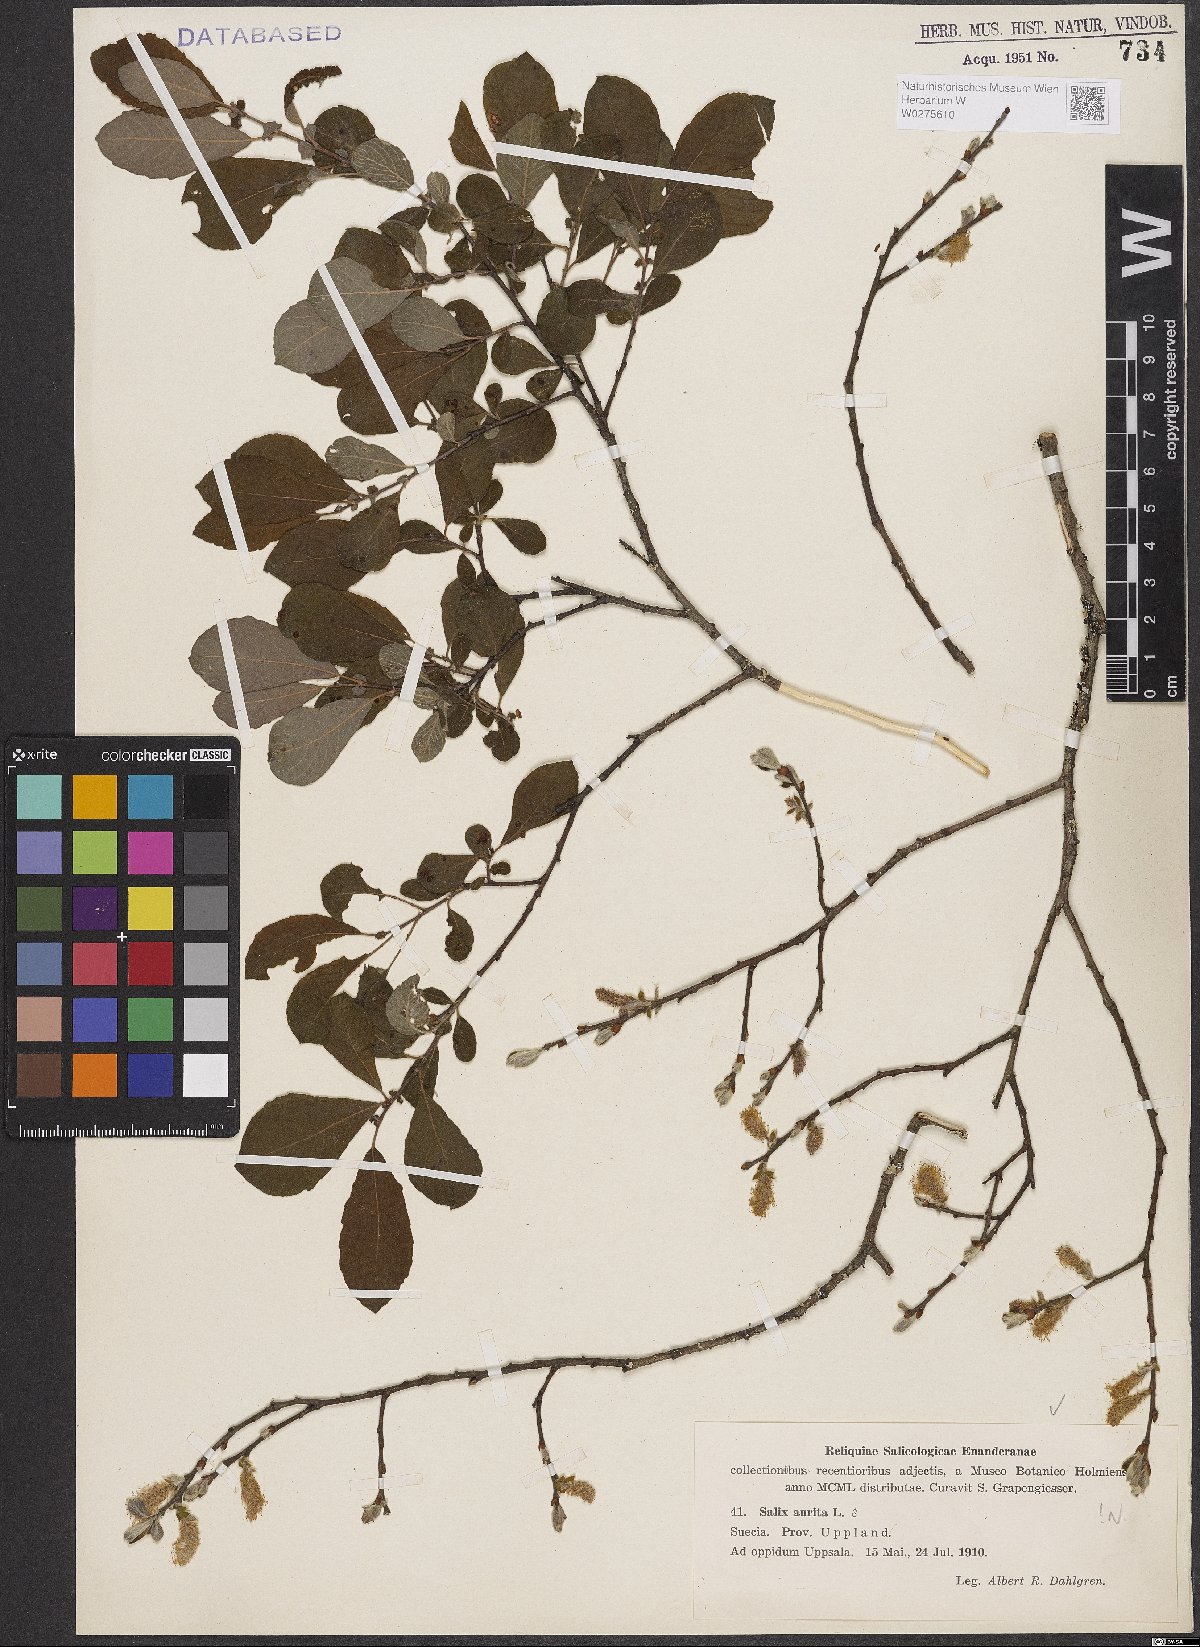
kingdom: Plantae
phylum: Tracheophyta
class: Magnoliopsida
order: Malpighiales
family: Salicaceae
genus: Salix
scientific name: Salix aurita
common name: Eared willow
